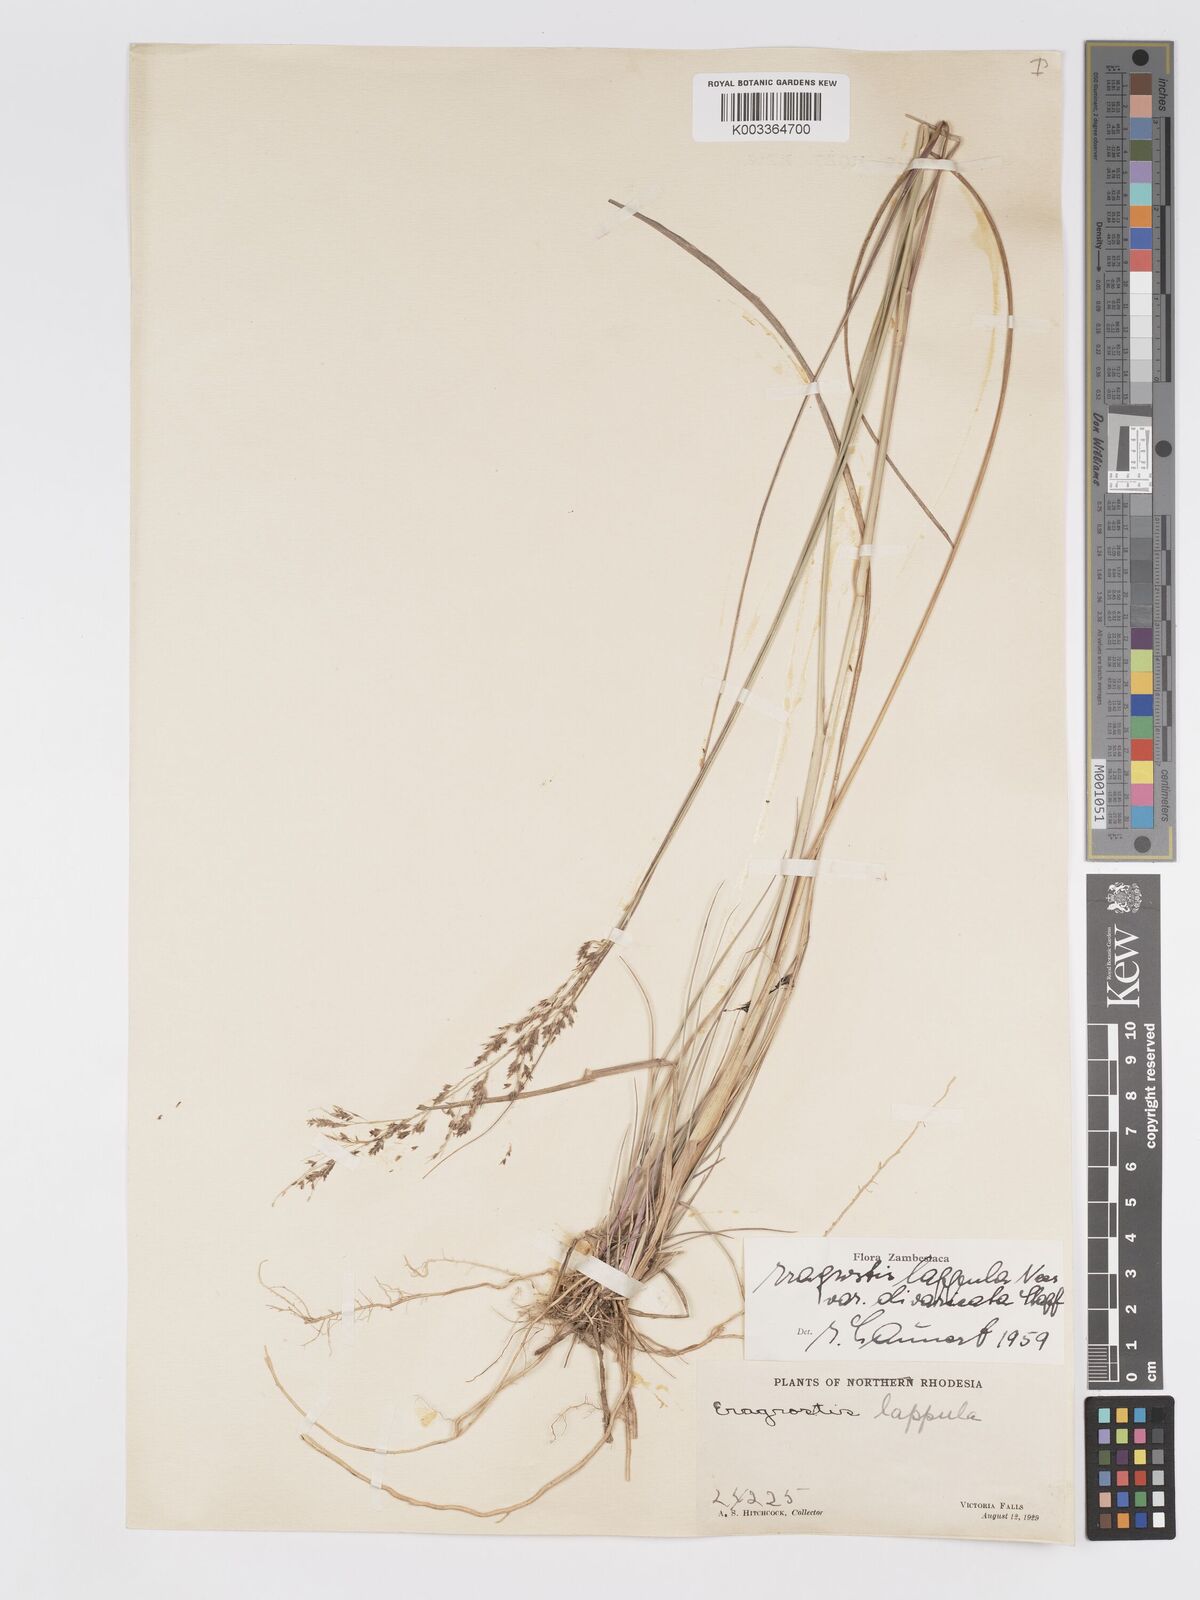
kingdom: Plantae
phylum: Tracheophyta
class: Liliopsida
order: Poales
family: Poaceae
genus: Eragrostis
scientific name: Eragrostis lappula
